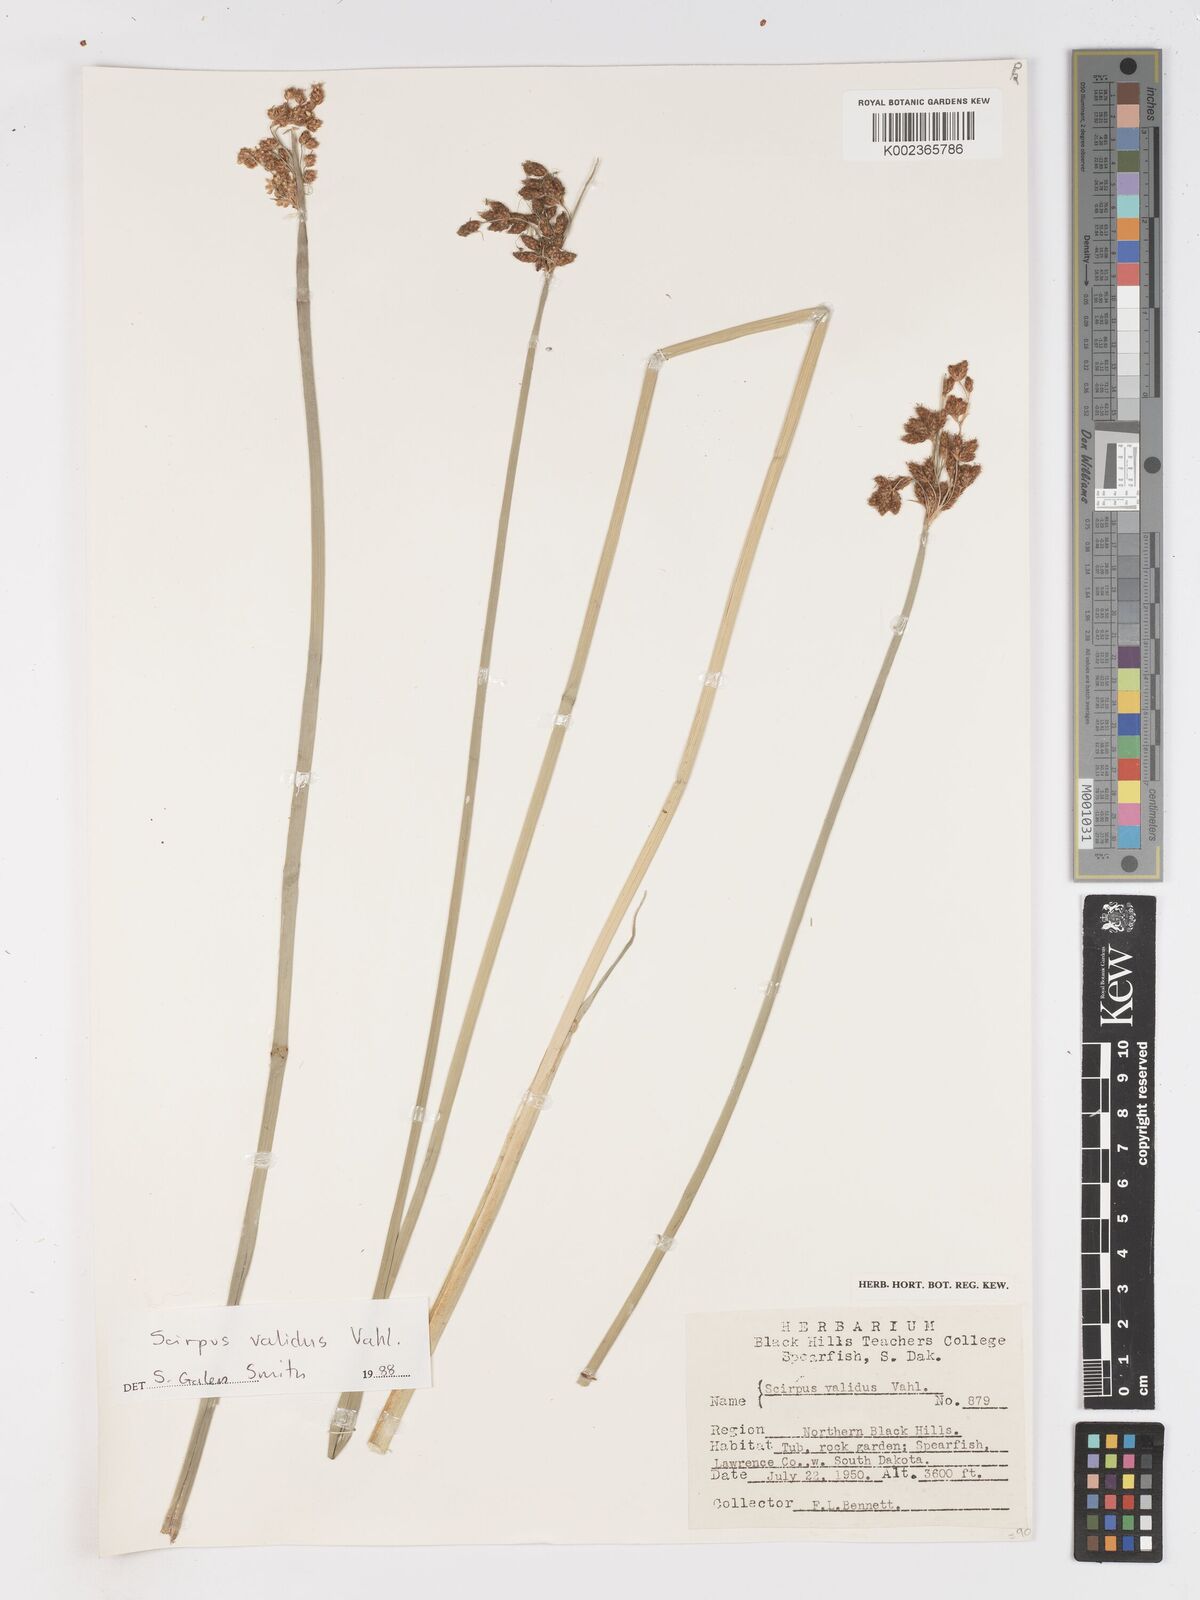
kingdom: Plantae
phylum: Tracheophyta
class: Liliopsida
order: Poales
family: Cyperaceae
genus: Schoenoplectus
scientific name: Schoenoplectus tabernaemontani
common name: Grey club-rush
